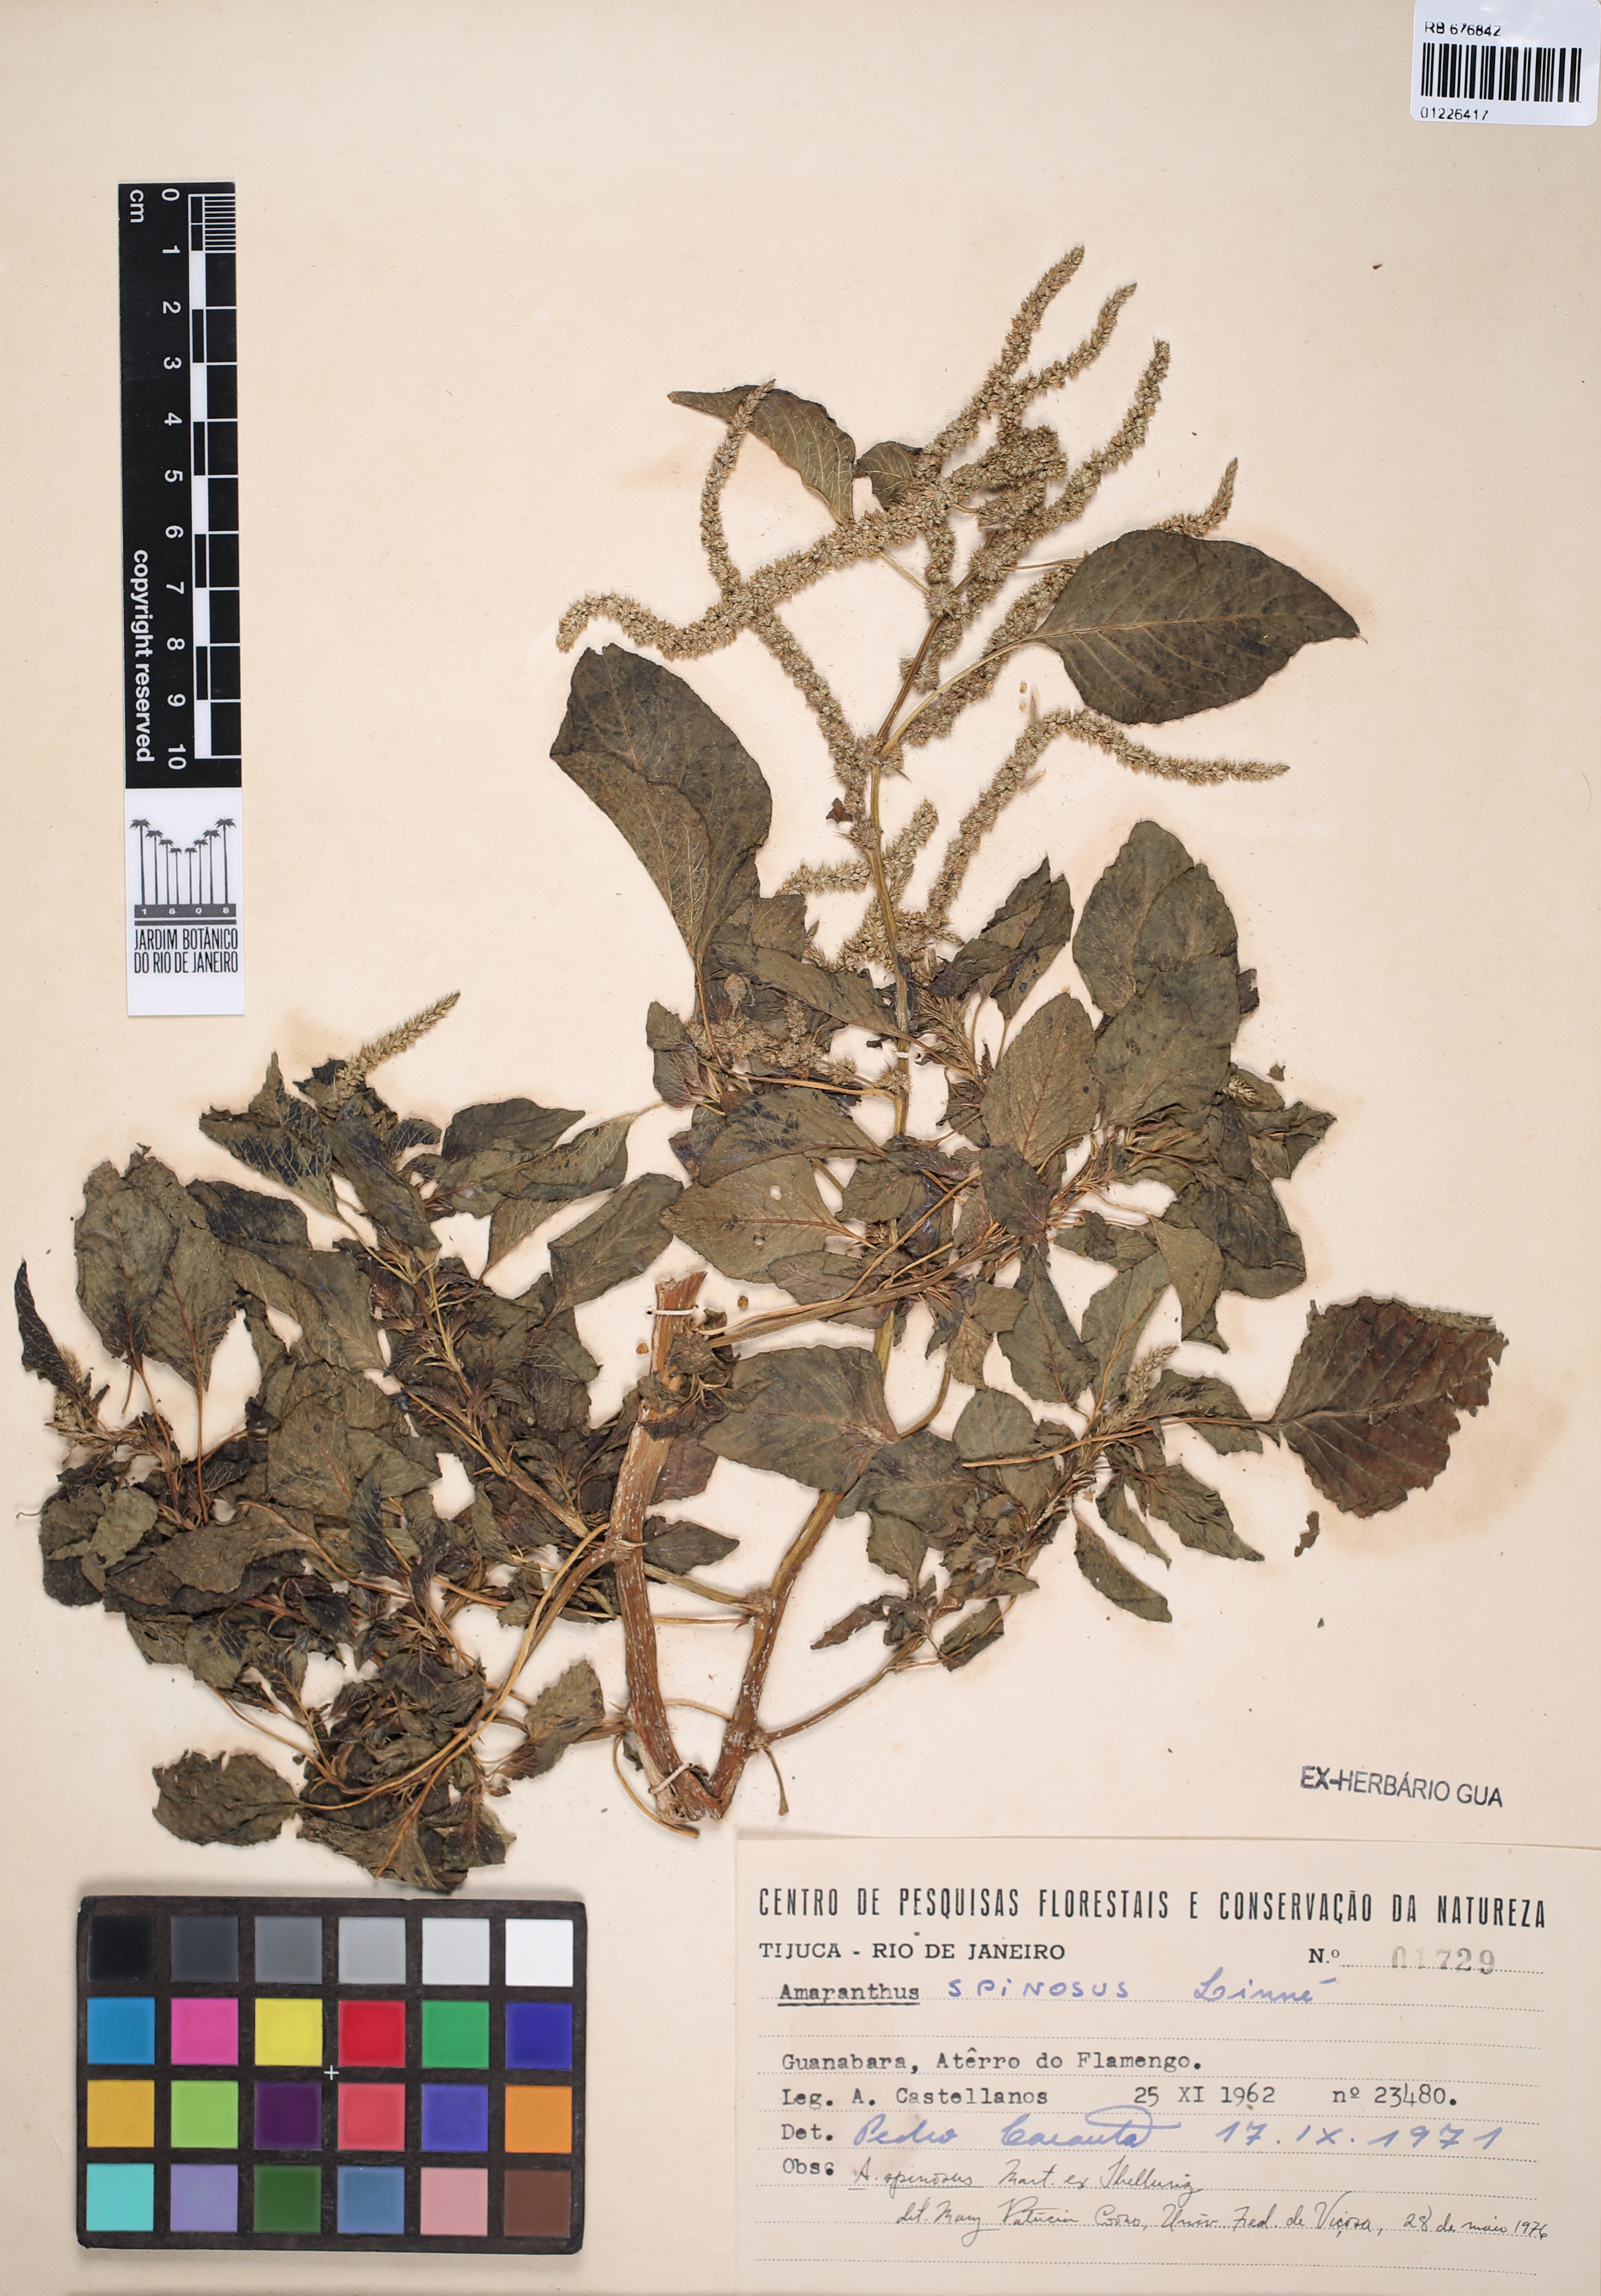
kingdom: Plantae
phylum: Tracheophyta
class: Magnoliopsida
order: Caryophyllales
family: Amaranthaceae
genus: Amaranthus
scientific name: Amaranthus spinosus
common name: Spiny amaranth
